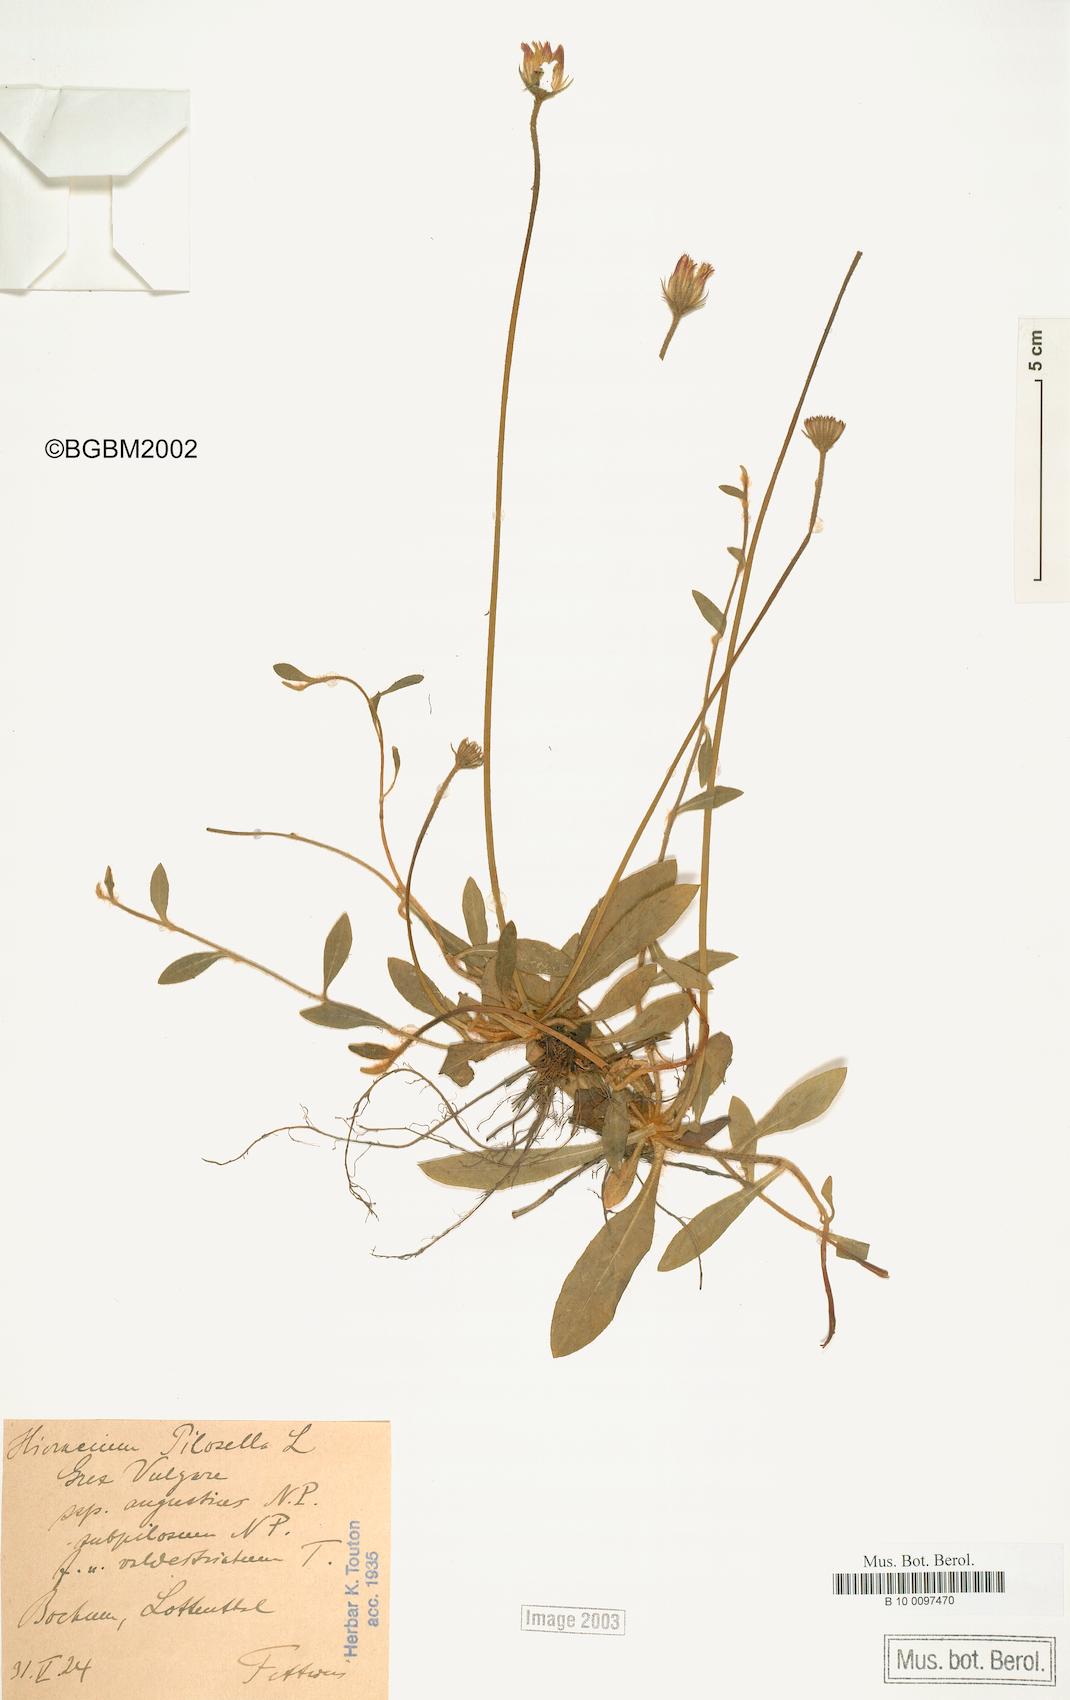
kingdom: Plantae
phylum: Tracheophyta
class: Magnoliopsida
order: Asterales
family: Asteraceae
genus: Pilosella
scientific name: Pilosella officinarum
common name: Mouse-ear hawkweed
